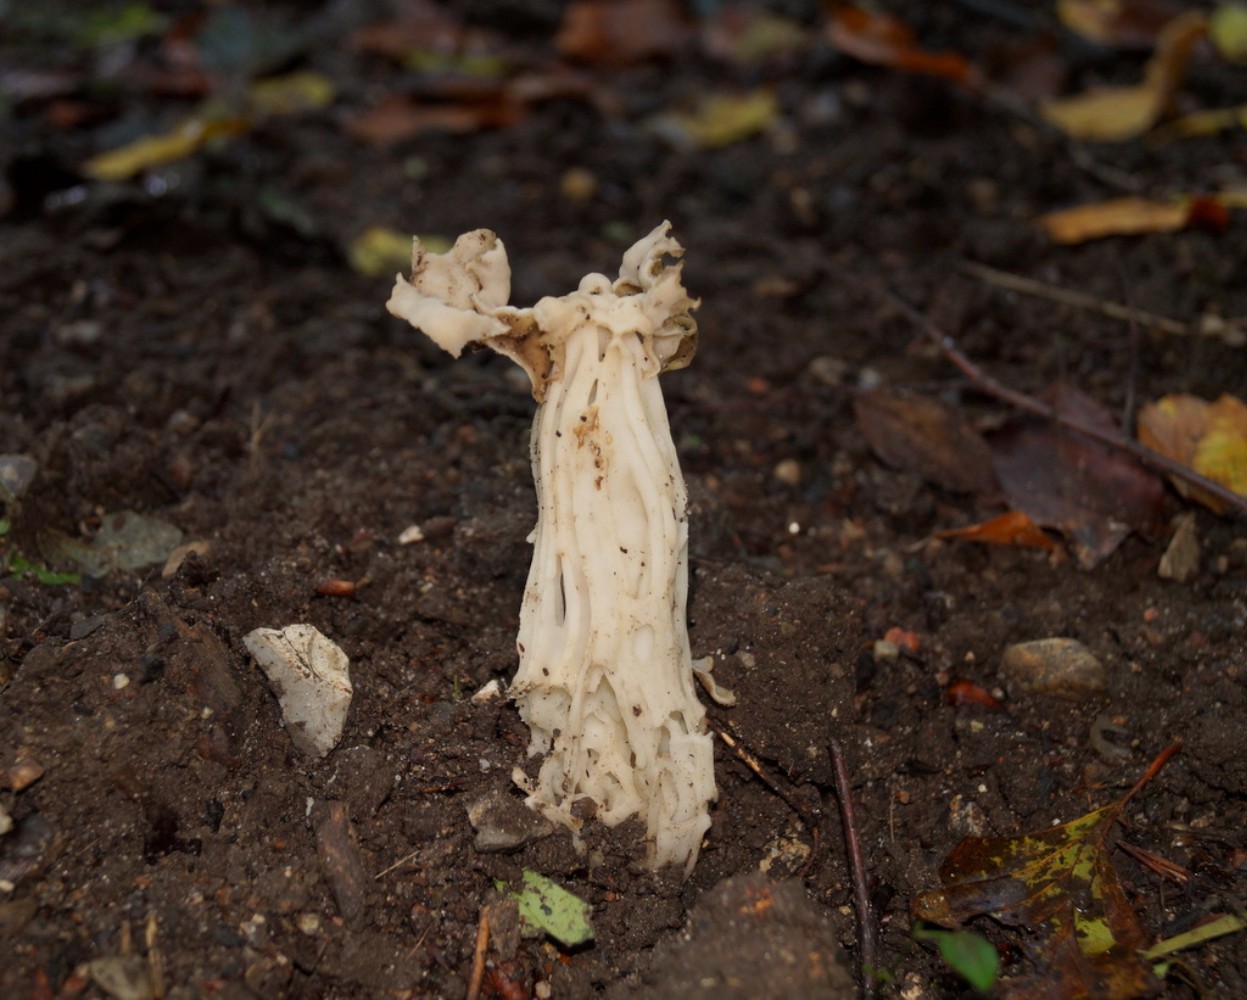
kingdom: Fungi
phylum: Ascomycota
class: Pezizomycetes
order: Pezizales
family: Helvellaceae
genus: Helvella
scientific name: Helvella crispa
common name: kruset foldhat
